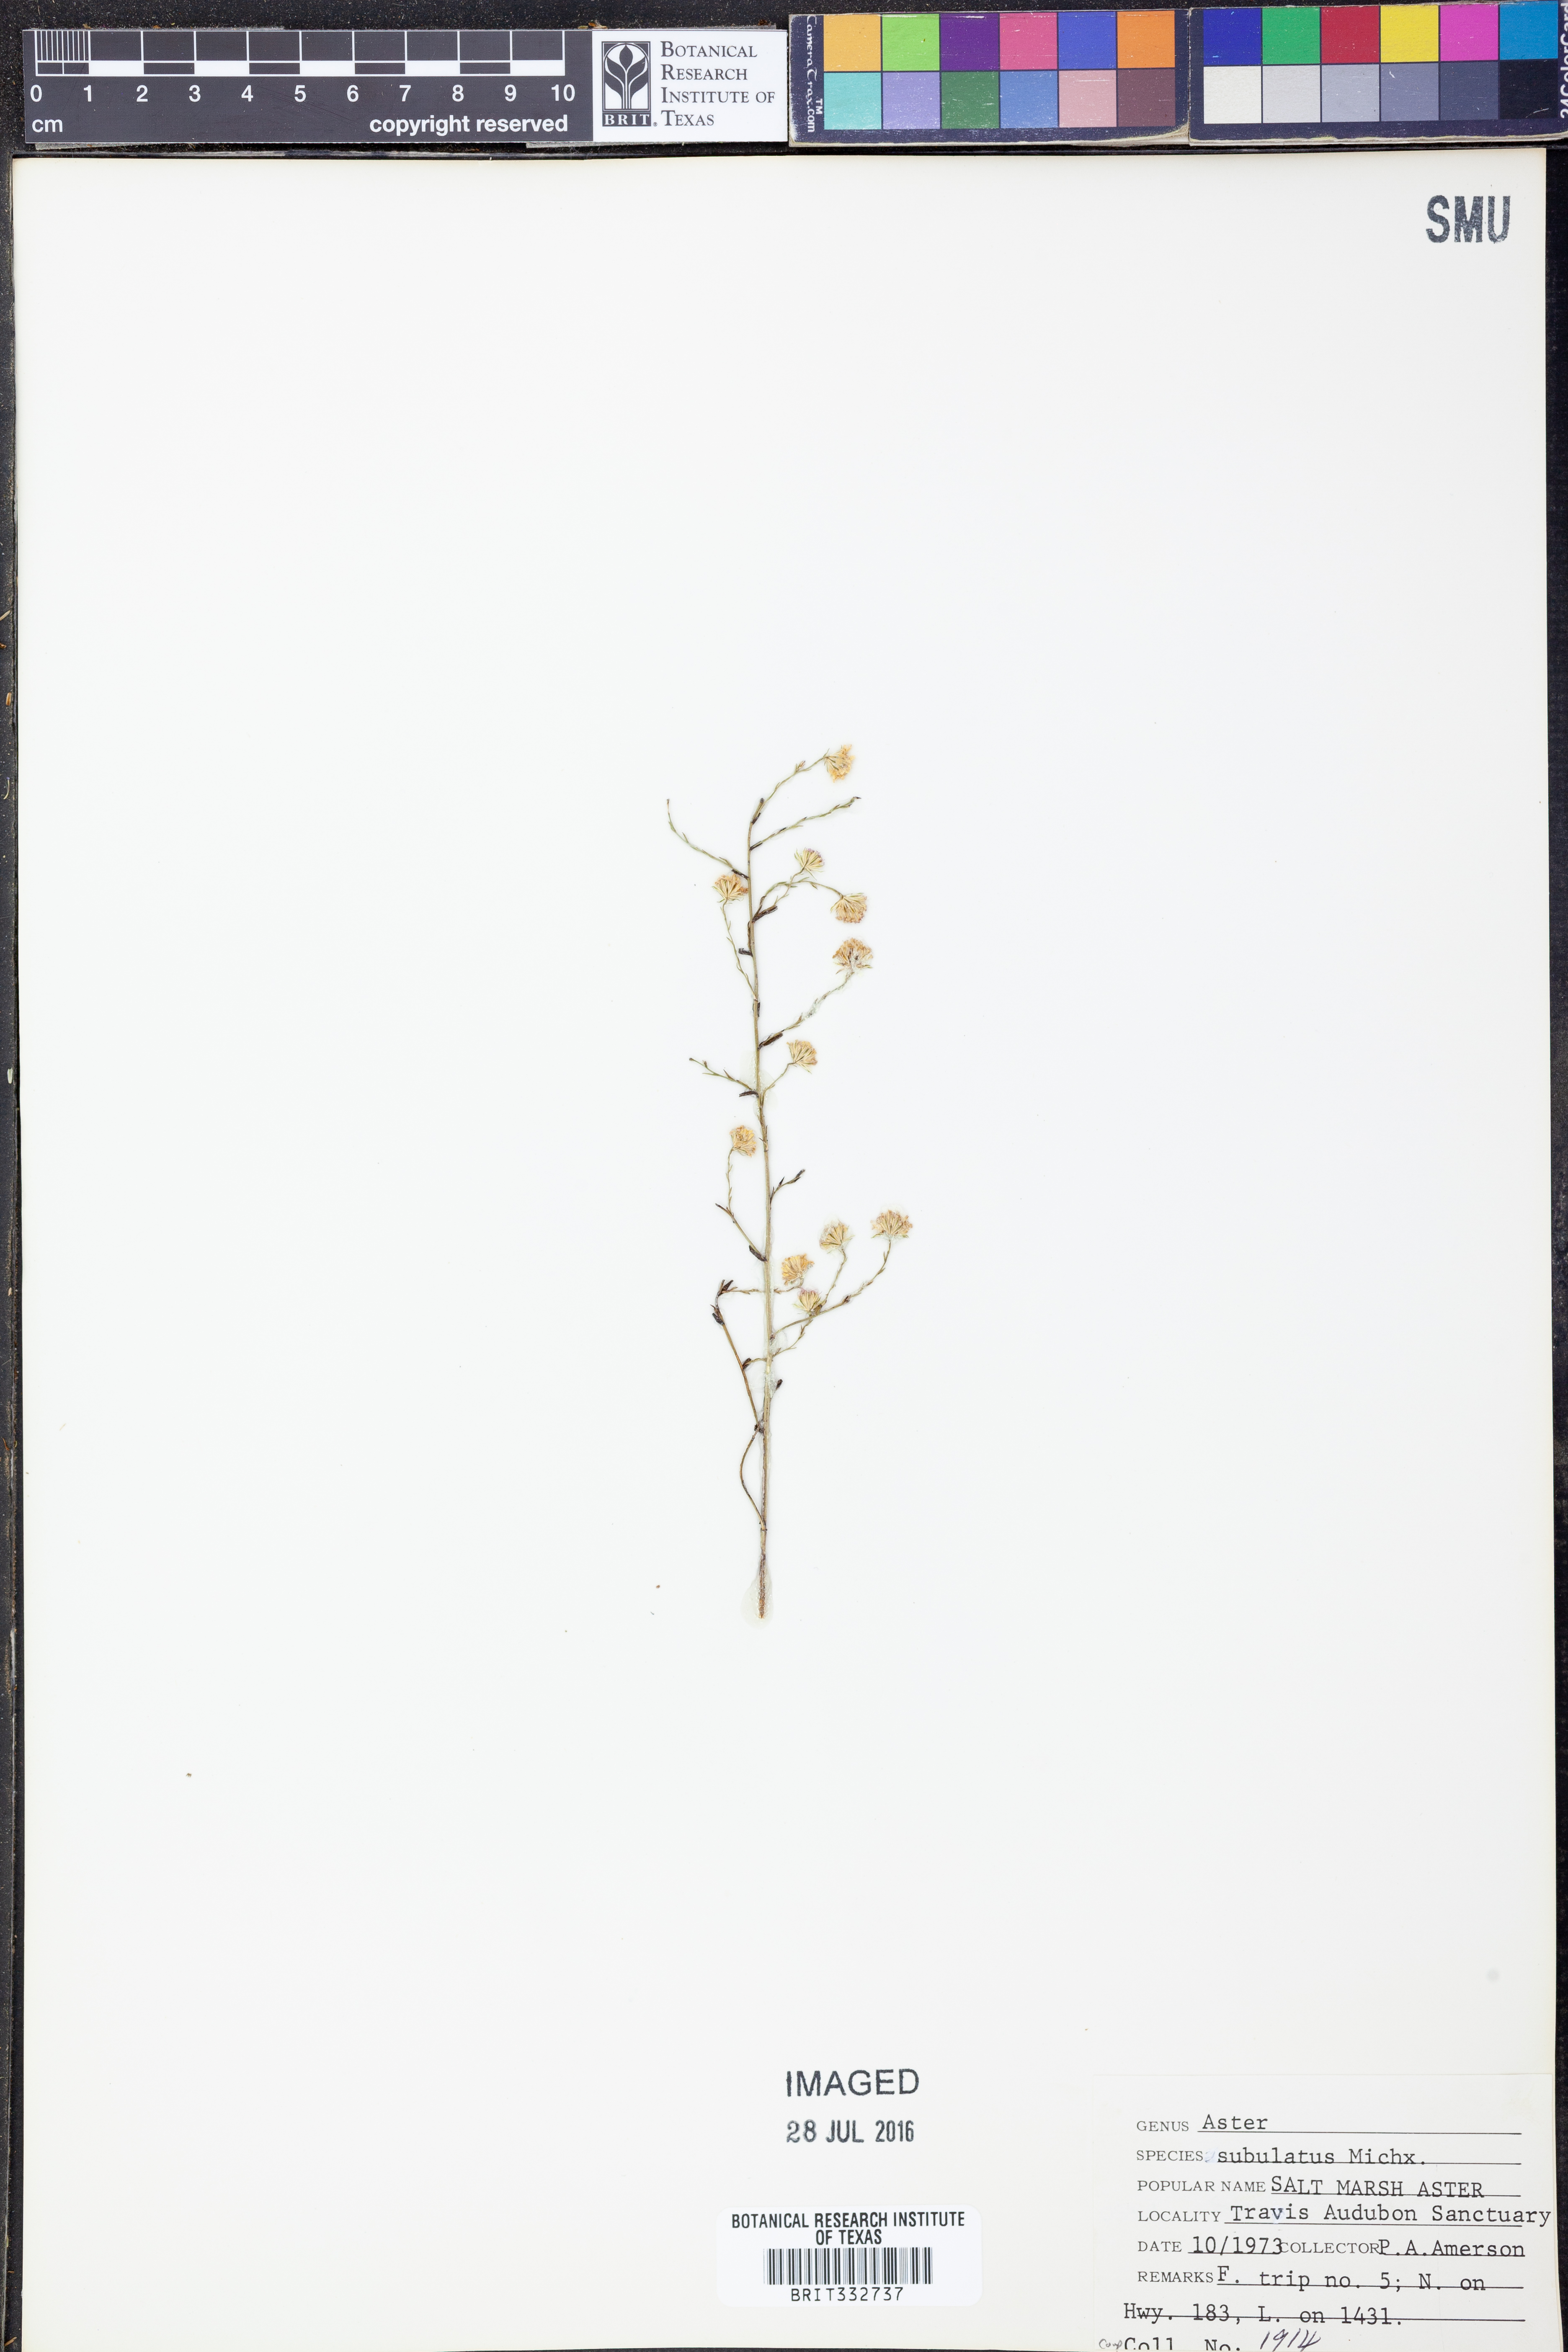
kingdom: Plantae
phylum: Tracheophyta
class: Magnoliopsida
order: Asterales
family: Asteraceae
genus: Symphyotrichum
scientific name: Symphyotrichum subulatum
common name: Annual saltmarsh aster
